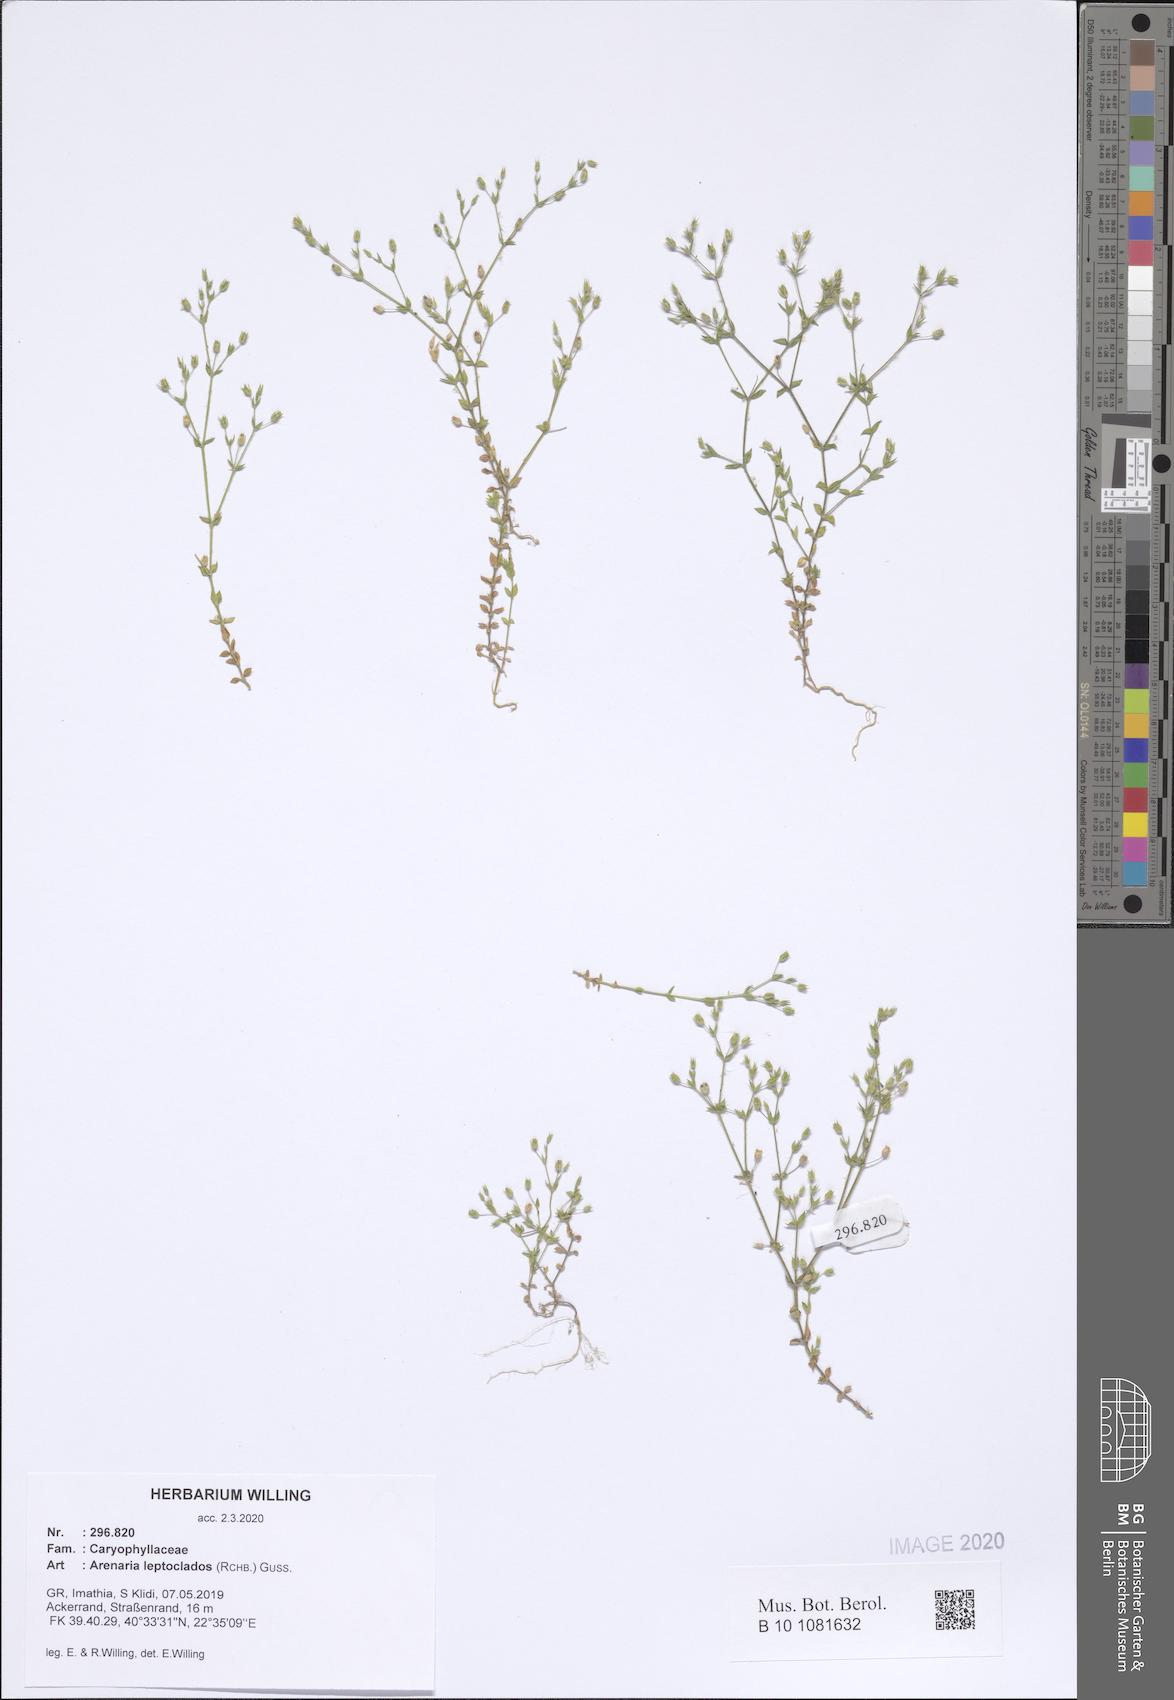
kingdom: Plantae
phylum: Tracheophyta
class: Magnoliopsida
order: Caryophyllales
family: Caryophyllaceae
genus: Arenaria
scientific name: Arenaria leptoclados
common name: Thyme-leaved sandwort
